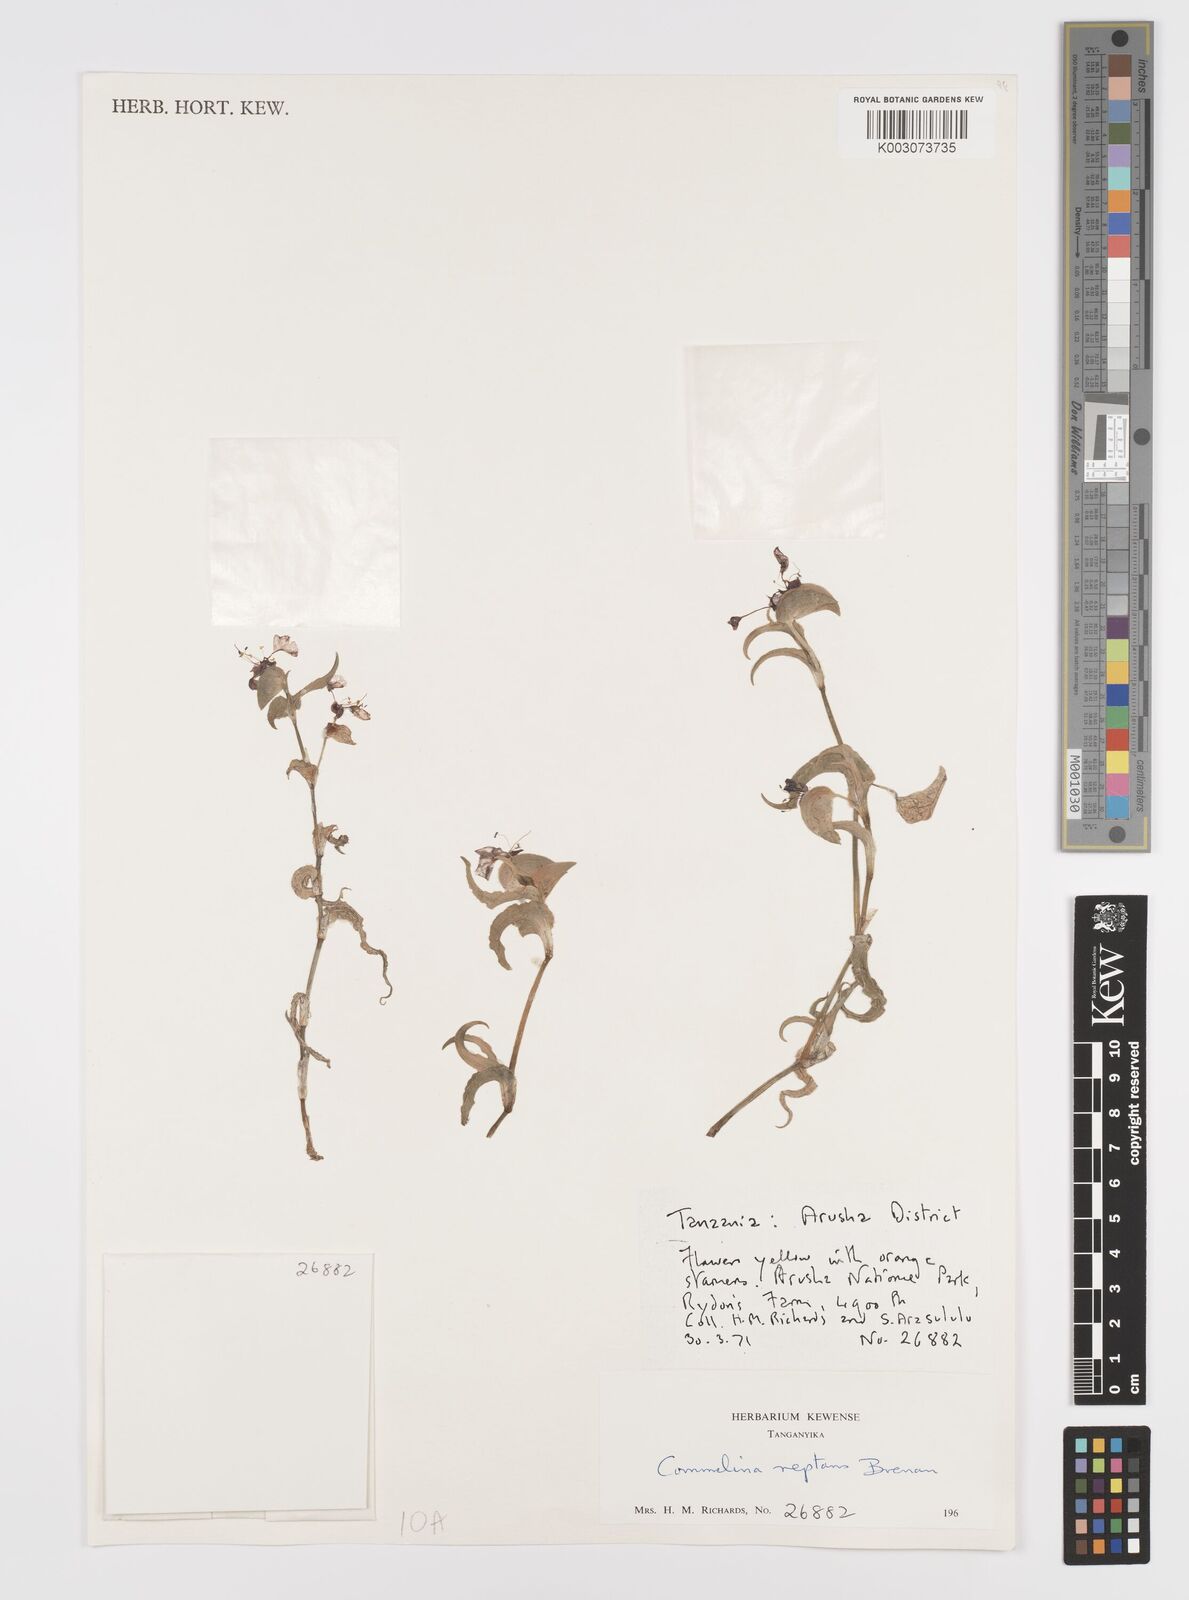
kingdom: Plantae
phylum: Tracheophyta
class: Liliopsida
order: Commelinales
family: Commelinaceae
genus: Commelina
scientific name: Commelina reptans
